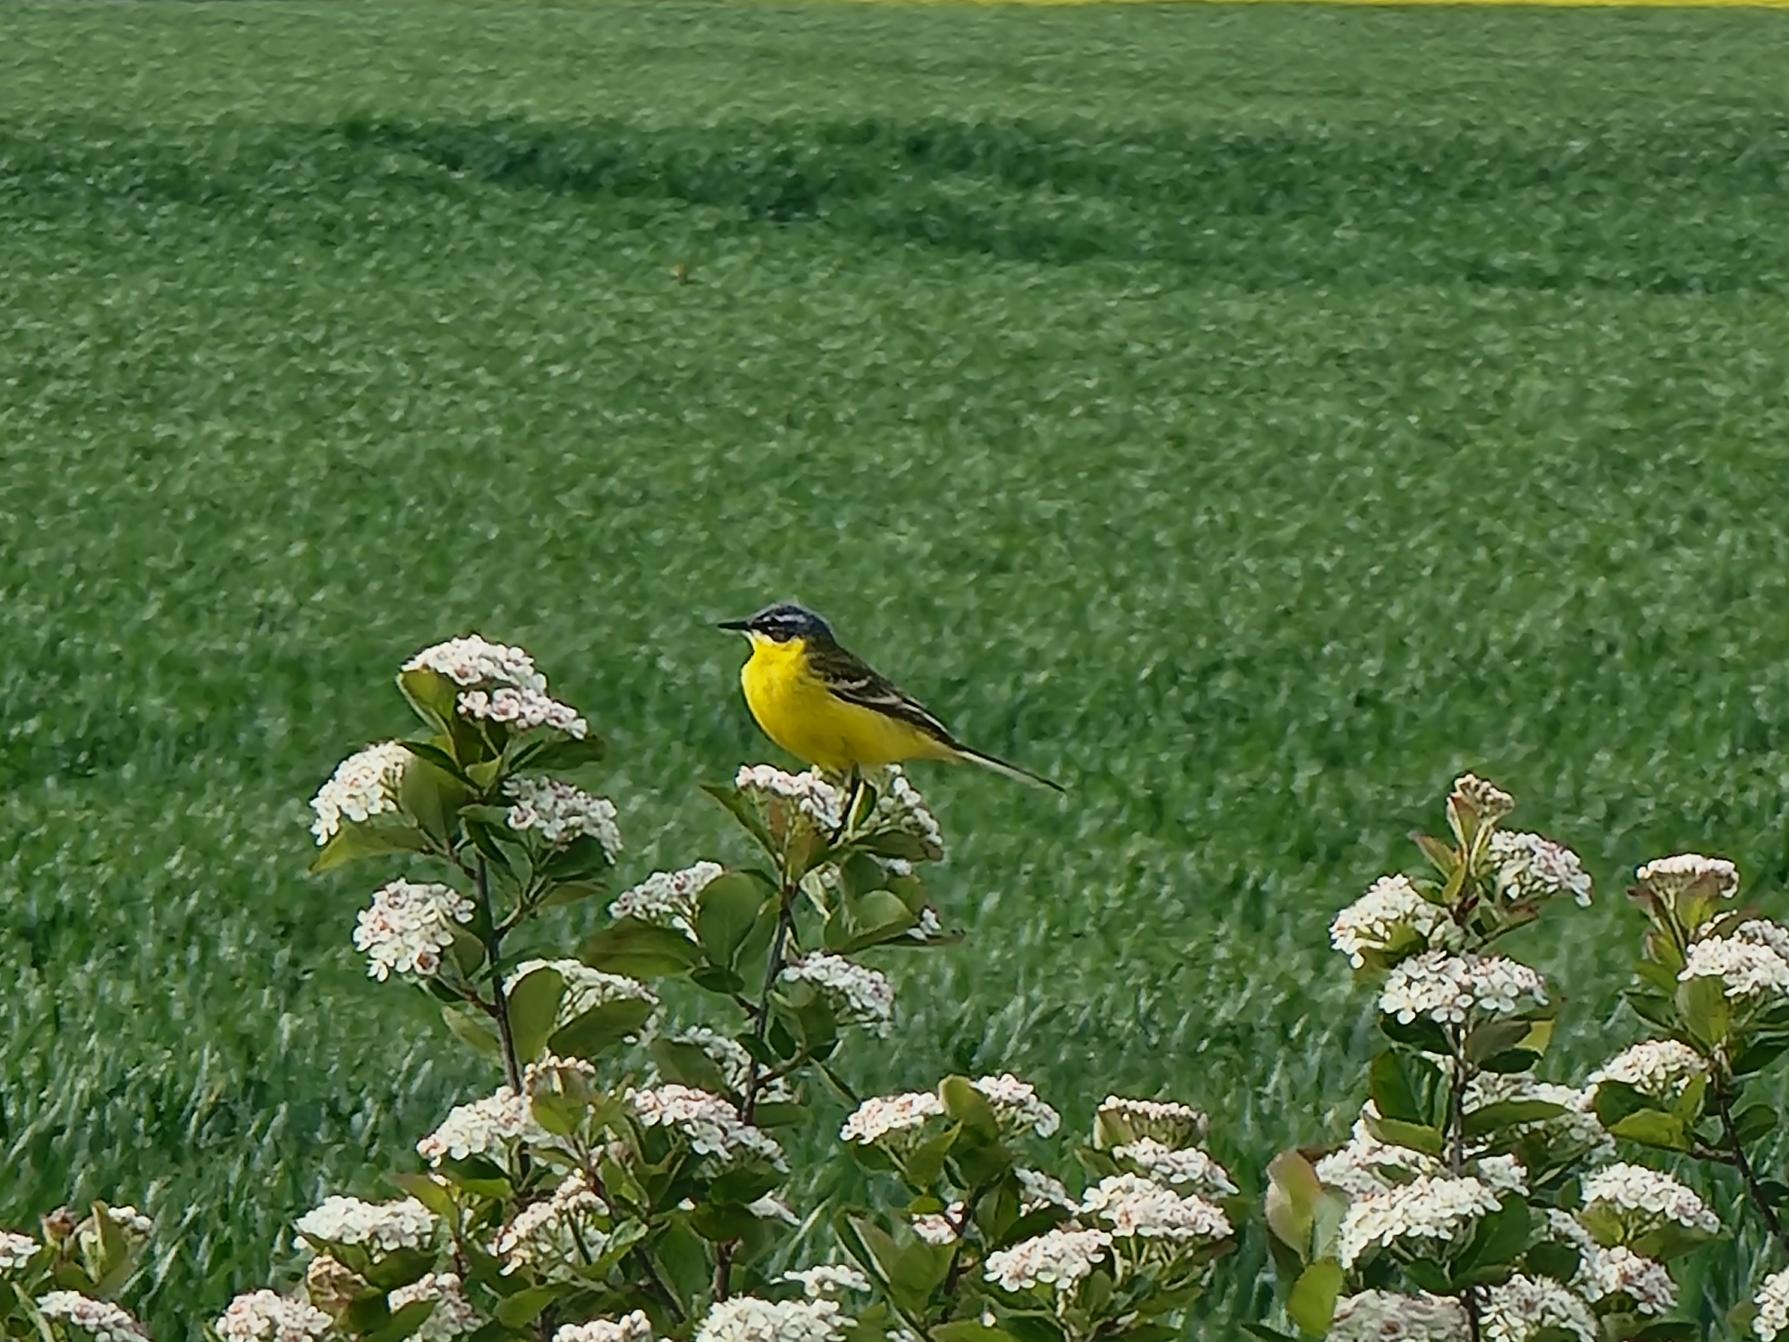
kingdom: Animalia
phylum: Chordata
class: Aves
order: Passeriformes
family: Motacillidae
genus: Motacilla
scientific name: Motacilla flava
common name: Gul vipstjert
